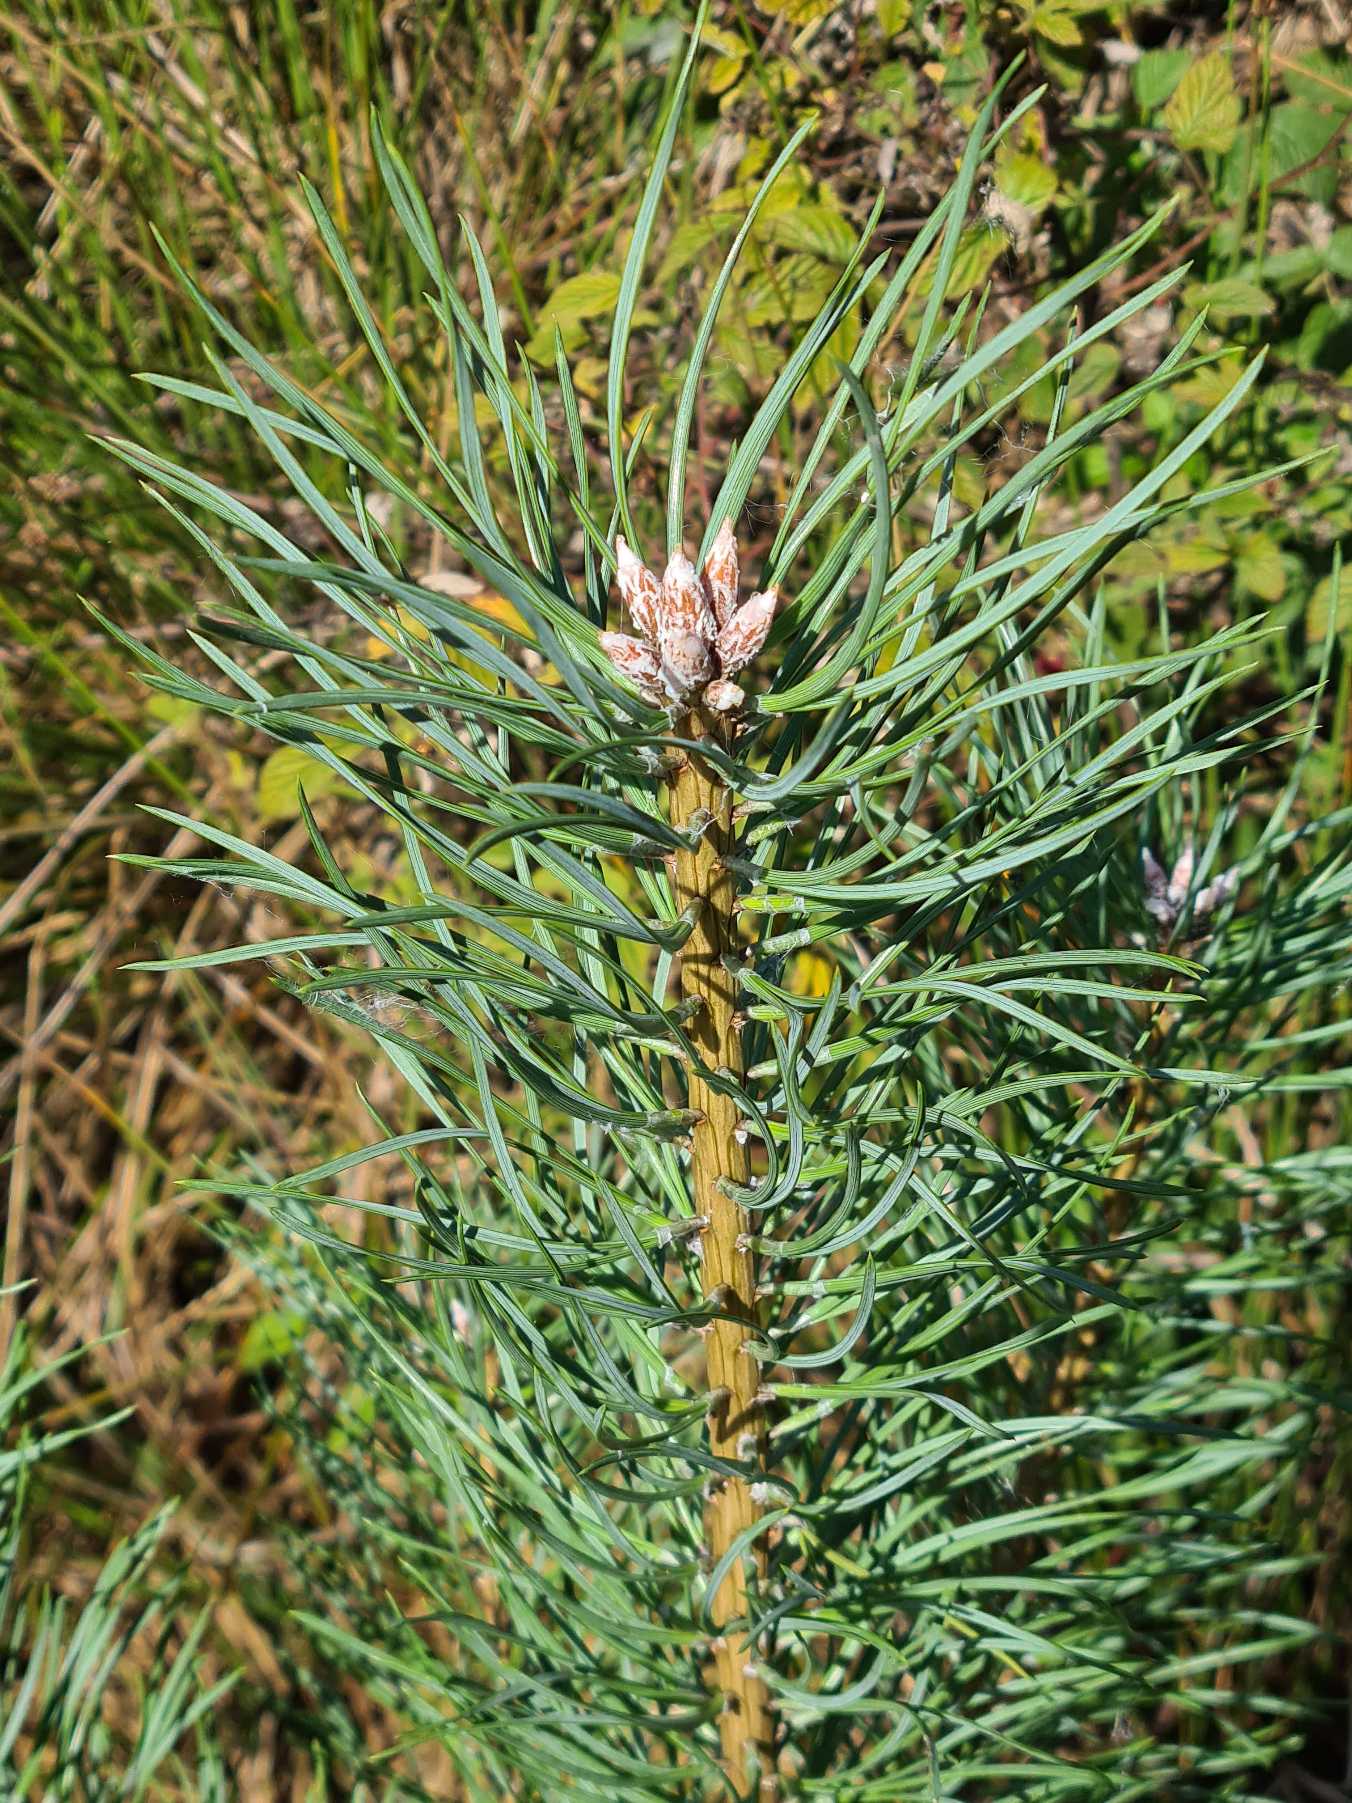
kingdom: Plantae
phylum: Tracheophyta
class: Pinopsida
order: Pinales
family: Pinaceae
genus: Pinus
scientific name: Pinus sylvestris
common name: Skov-fyr
